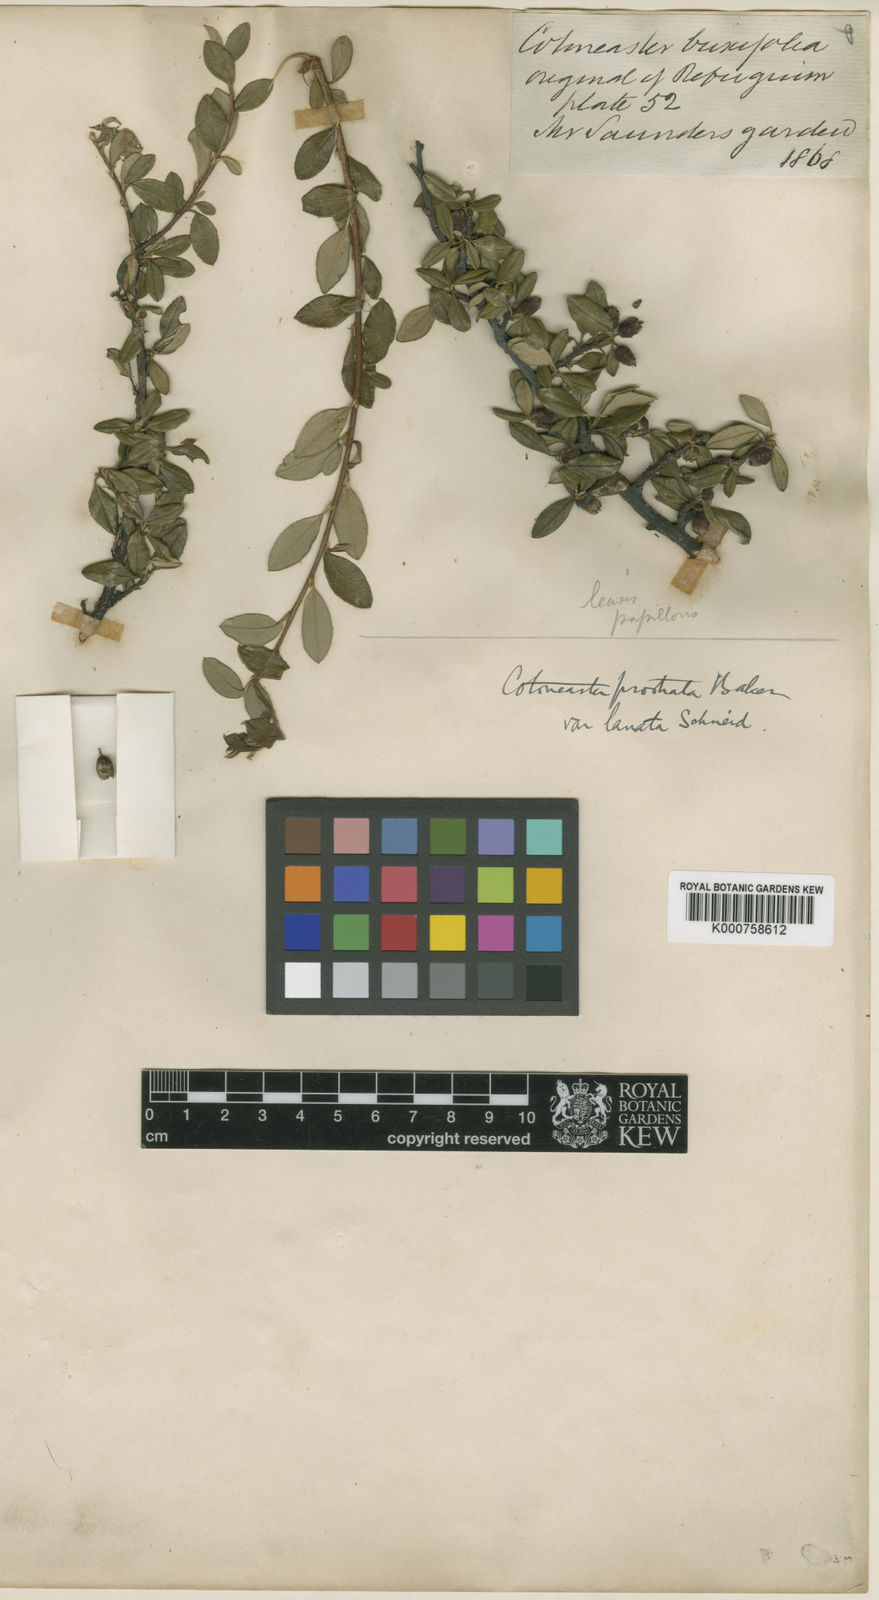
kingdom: Plantae
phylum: Tracheophyta
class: Magnoliopsida
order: Rosales
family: Rosaceae
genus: Cotoneaster
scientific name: Cotoneaster prostratus
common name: Procumbent cotoneaster
